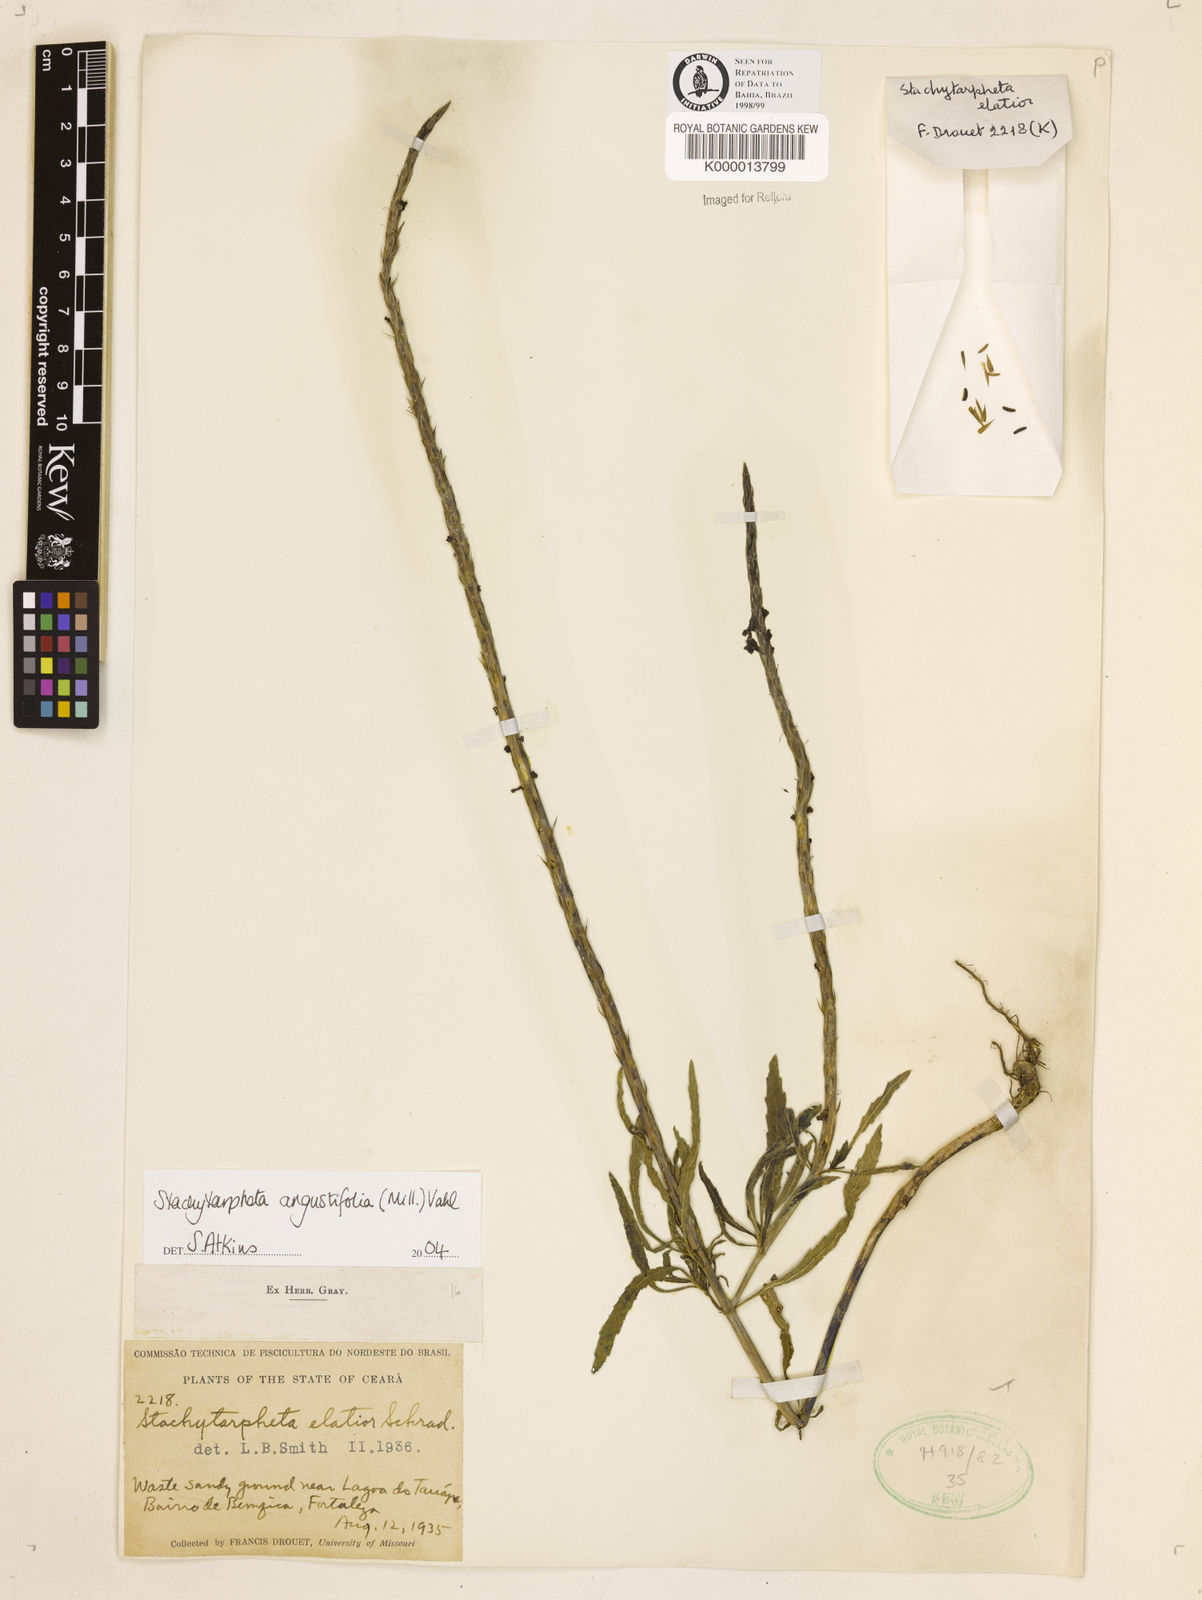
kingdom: Plantae
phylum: Tracheophyta
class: Magnoliopsida
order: Lamiales
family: Verbenaceae
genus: Stachytarpheta
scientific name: Stachytarpheta indica
